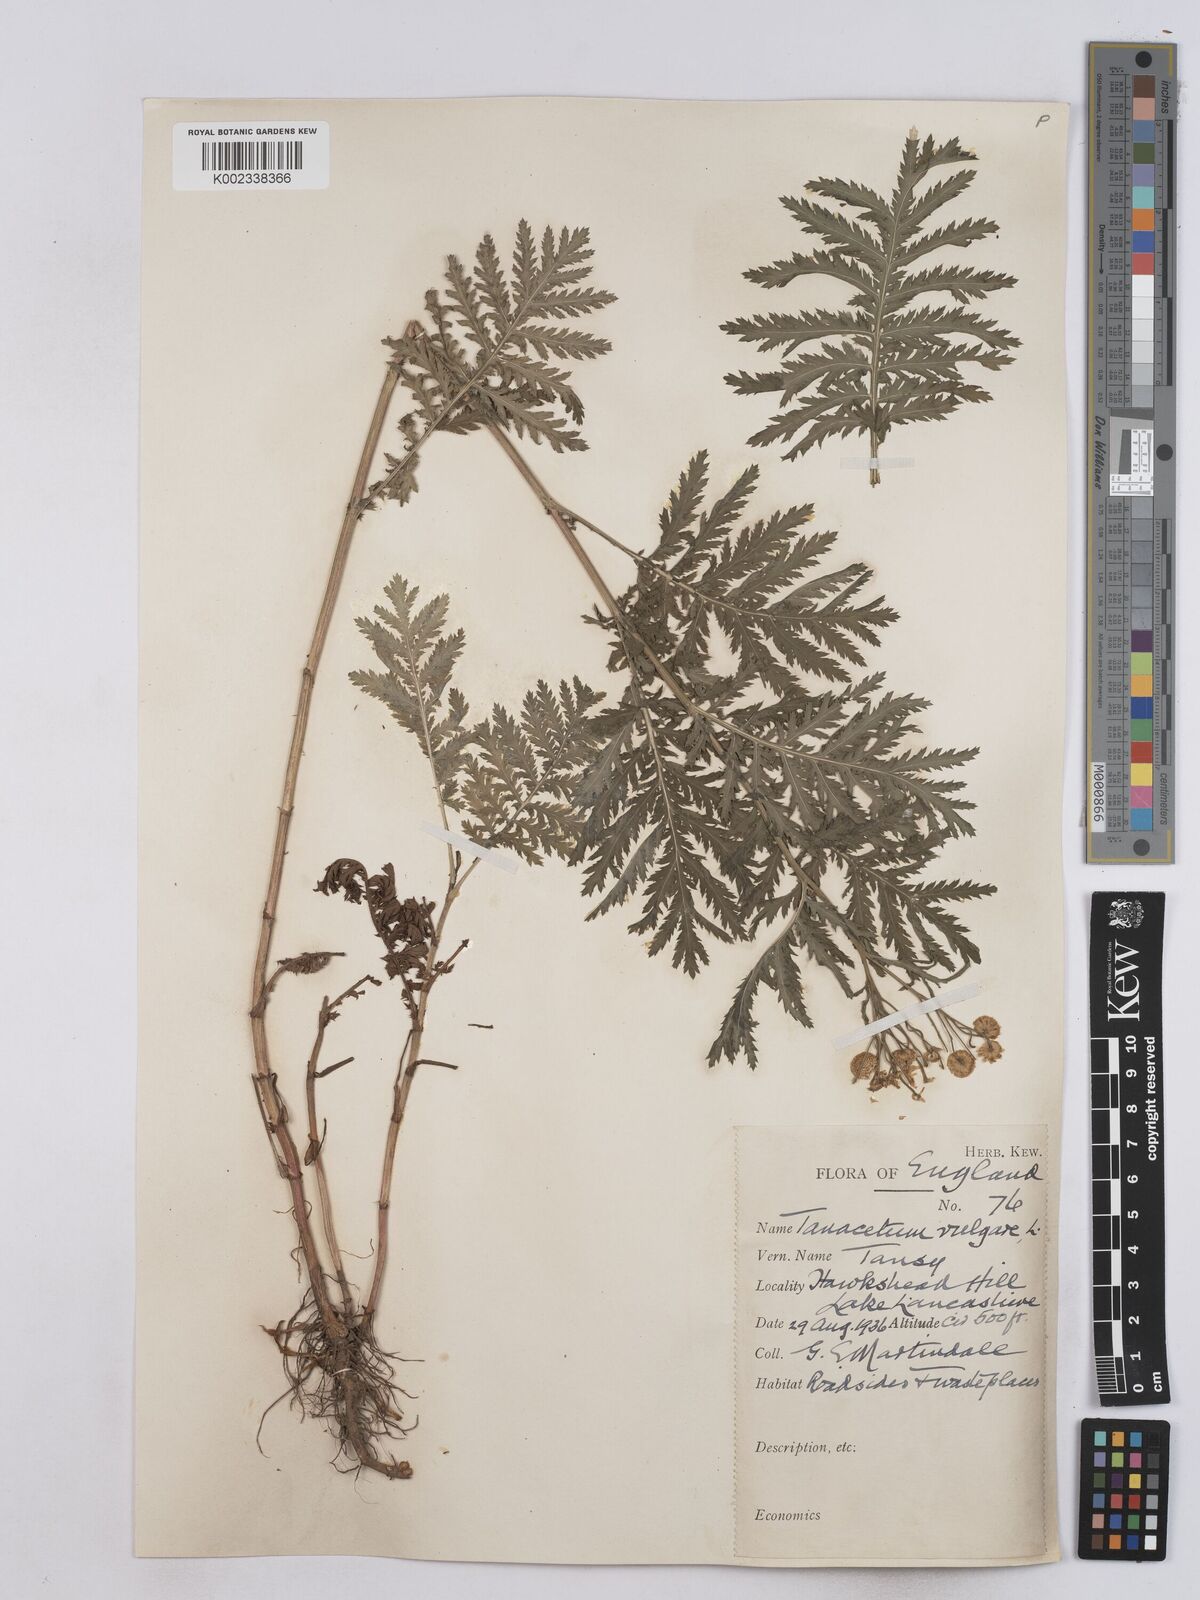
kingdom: Plantae
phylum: Tracheophyta
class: Magnoliopsida
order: Asterales
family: Asteraceae
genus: Tanacetum
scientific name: Tanacetum vulgare
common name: Common tansy
